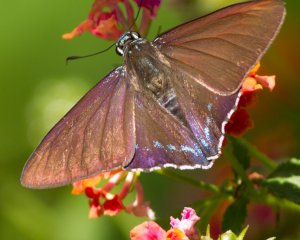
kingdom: Animalia
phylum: Arthropoda
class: Insecta
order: Lepidoptera
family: Hesperiidae
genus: Phocides
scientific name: Phocides pigmalion
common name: Mangrove Skipper
